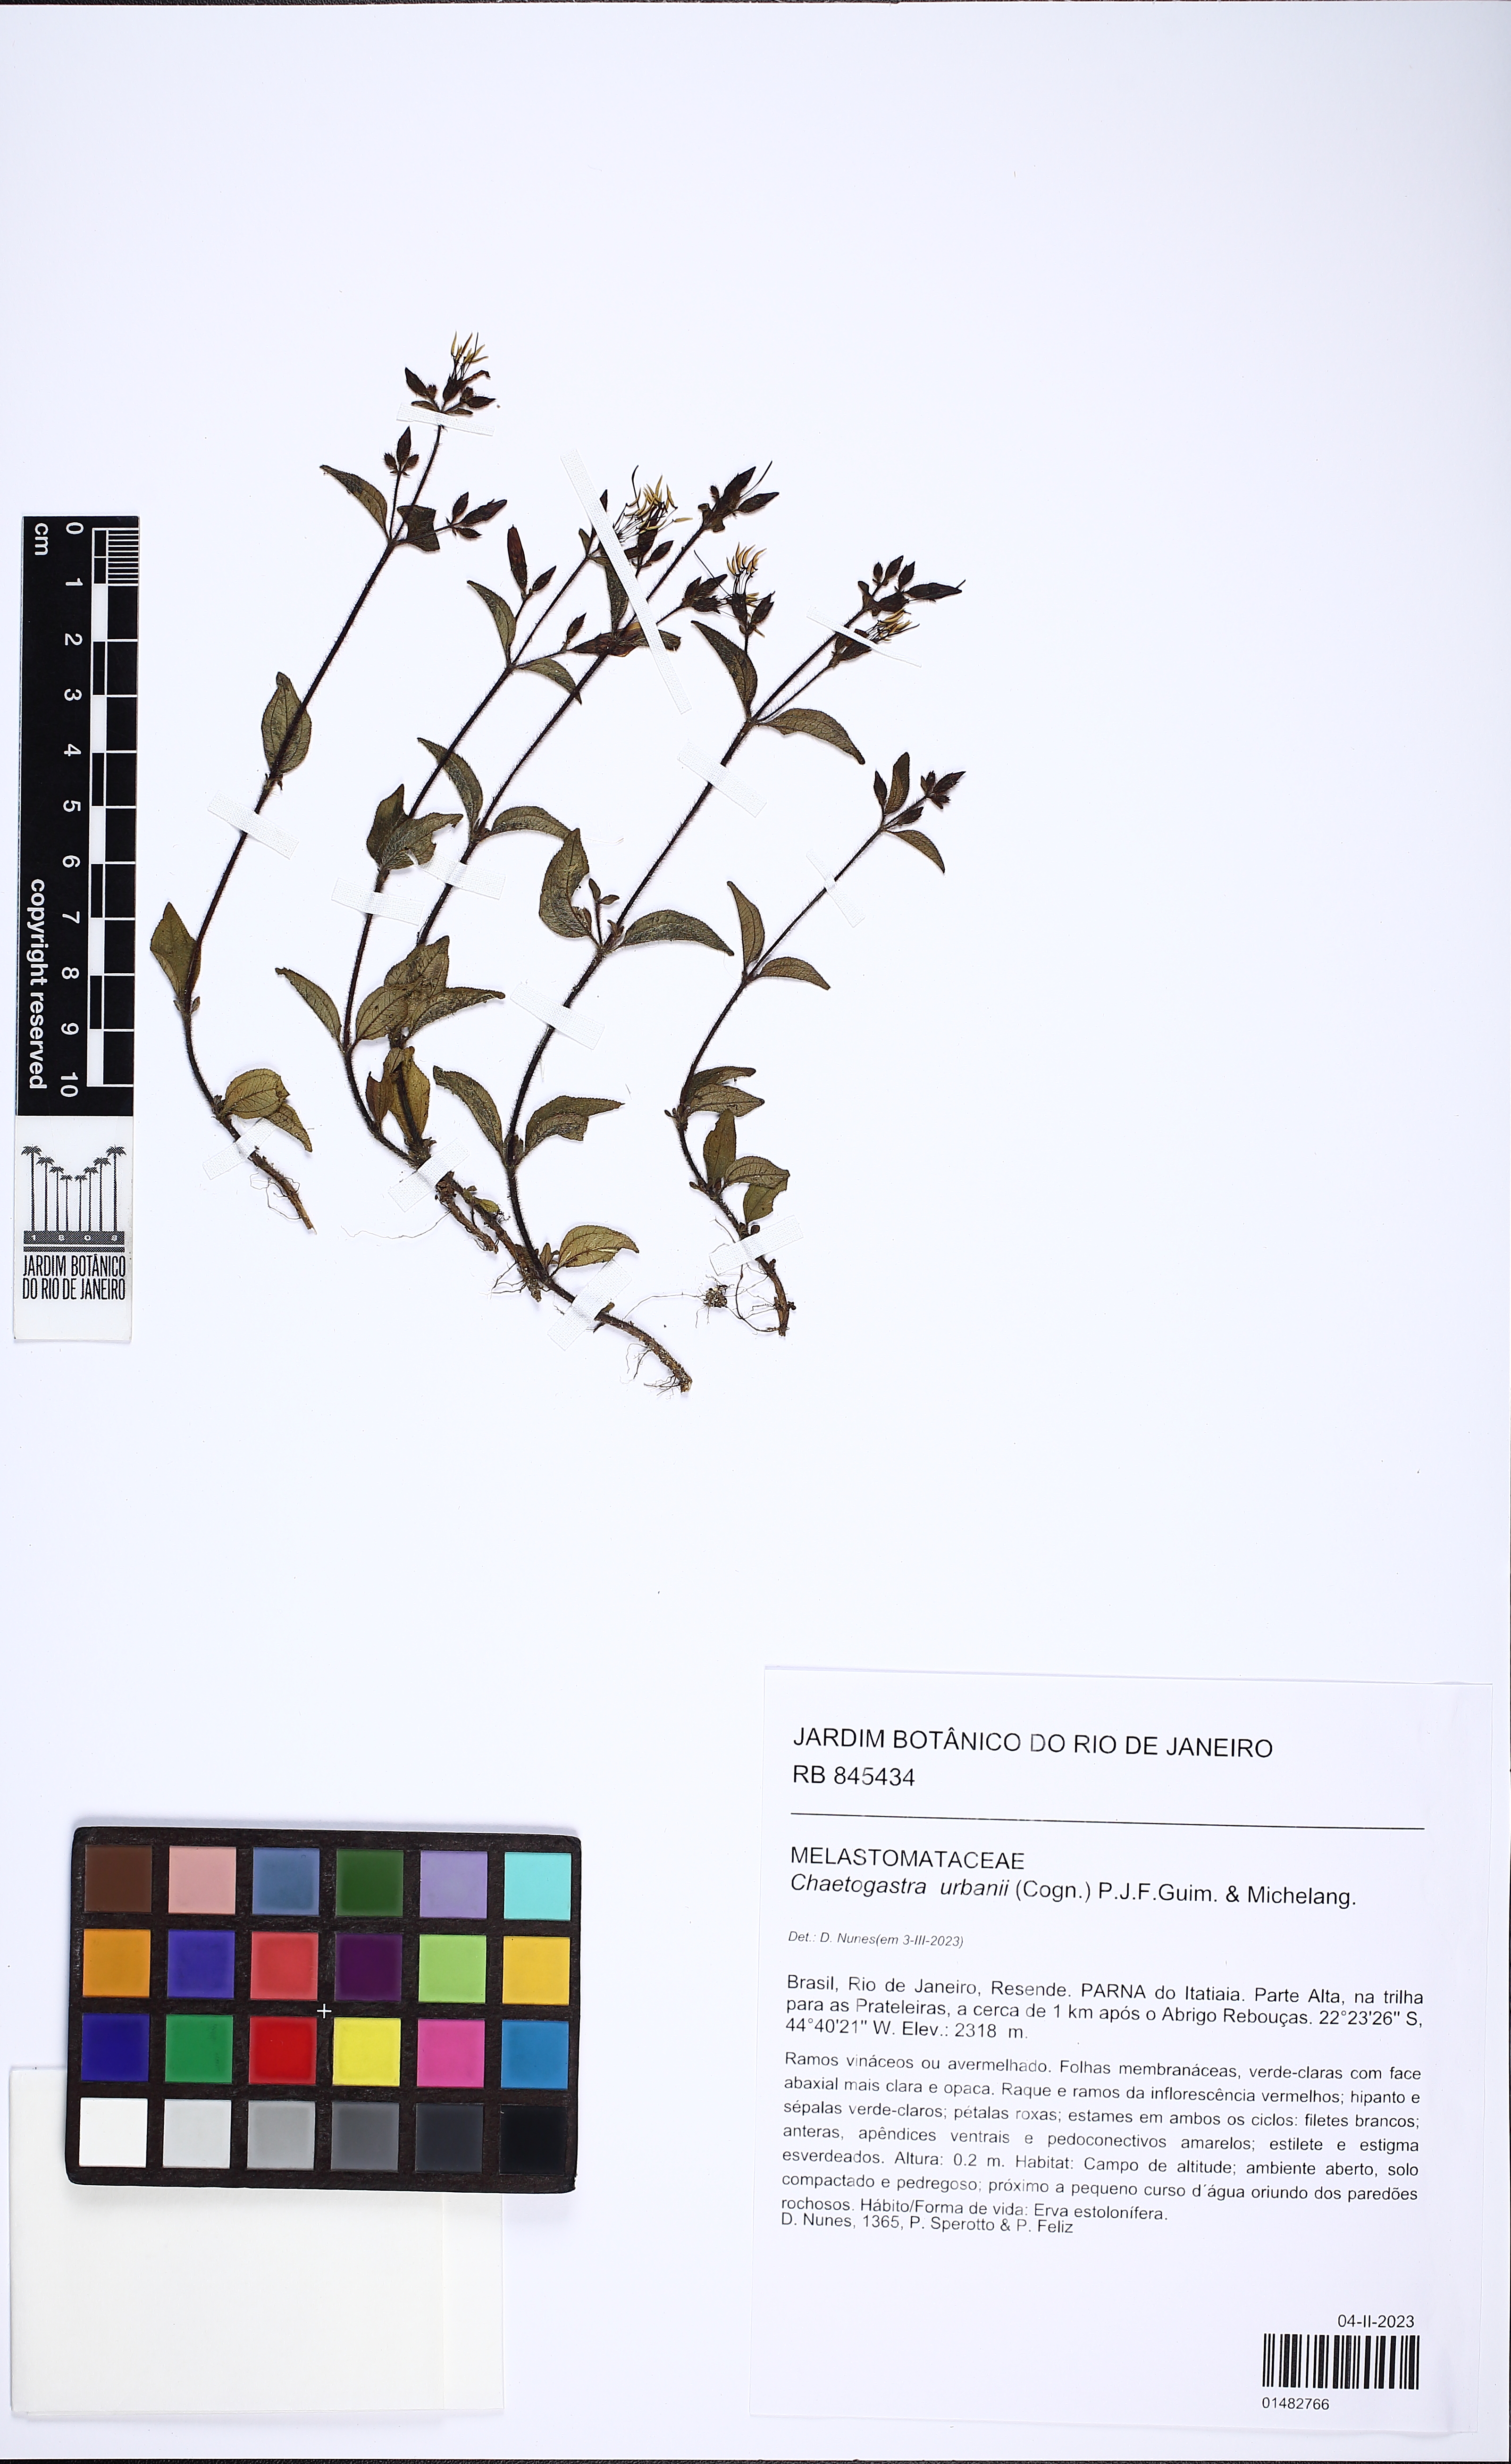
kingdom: Plantae
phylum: Tracheophyta
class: Magnoliopsida
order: Myrtales
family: Melastomataceae
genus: Chaetogastra
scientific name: Chaetogastra urbanii
